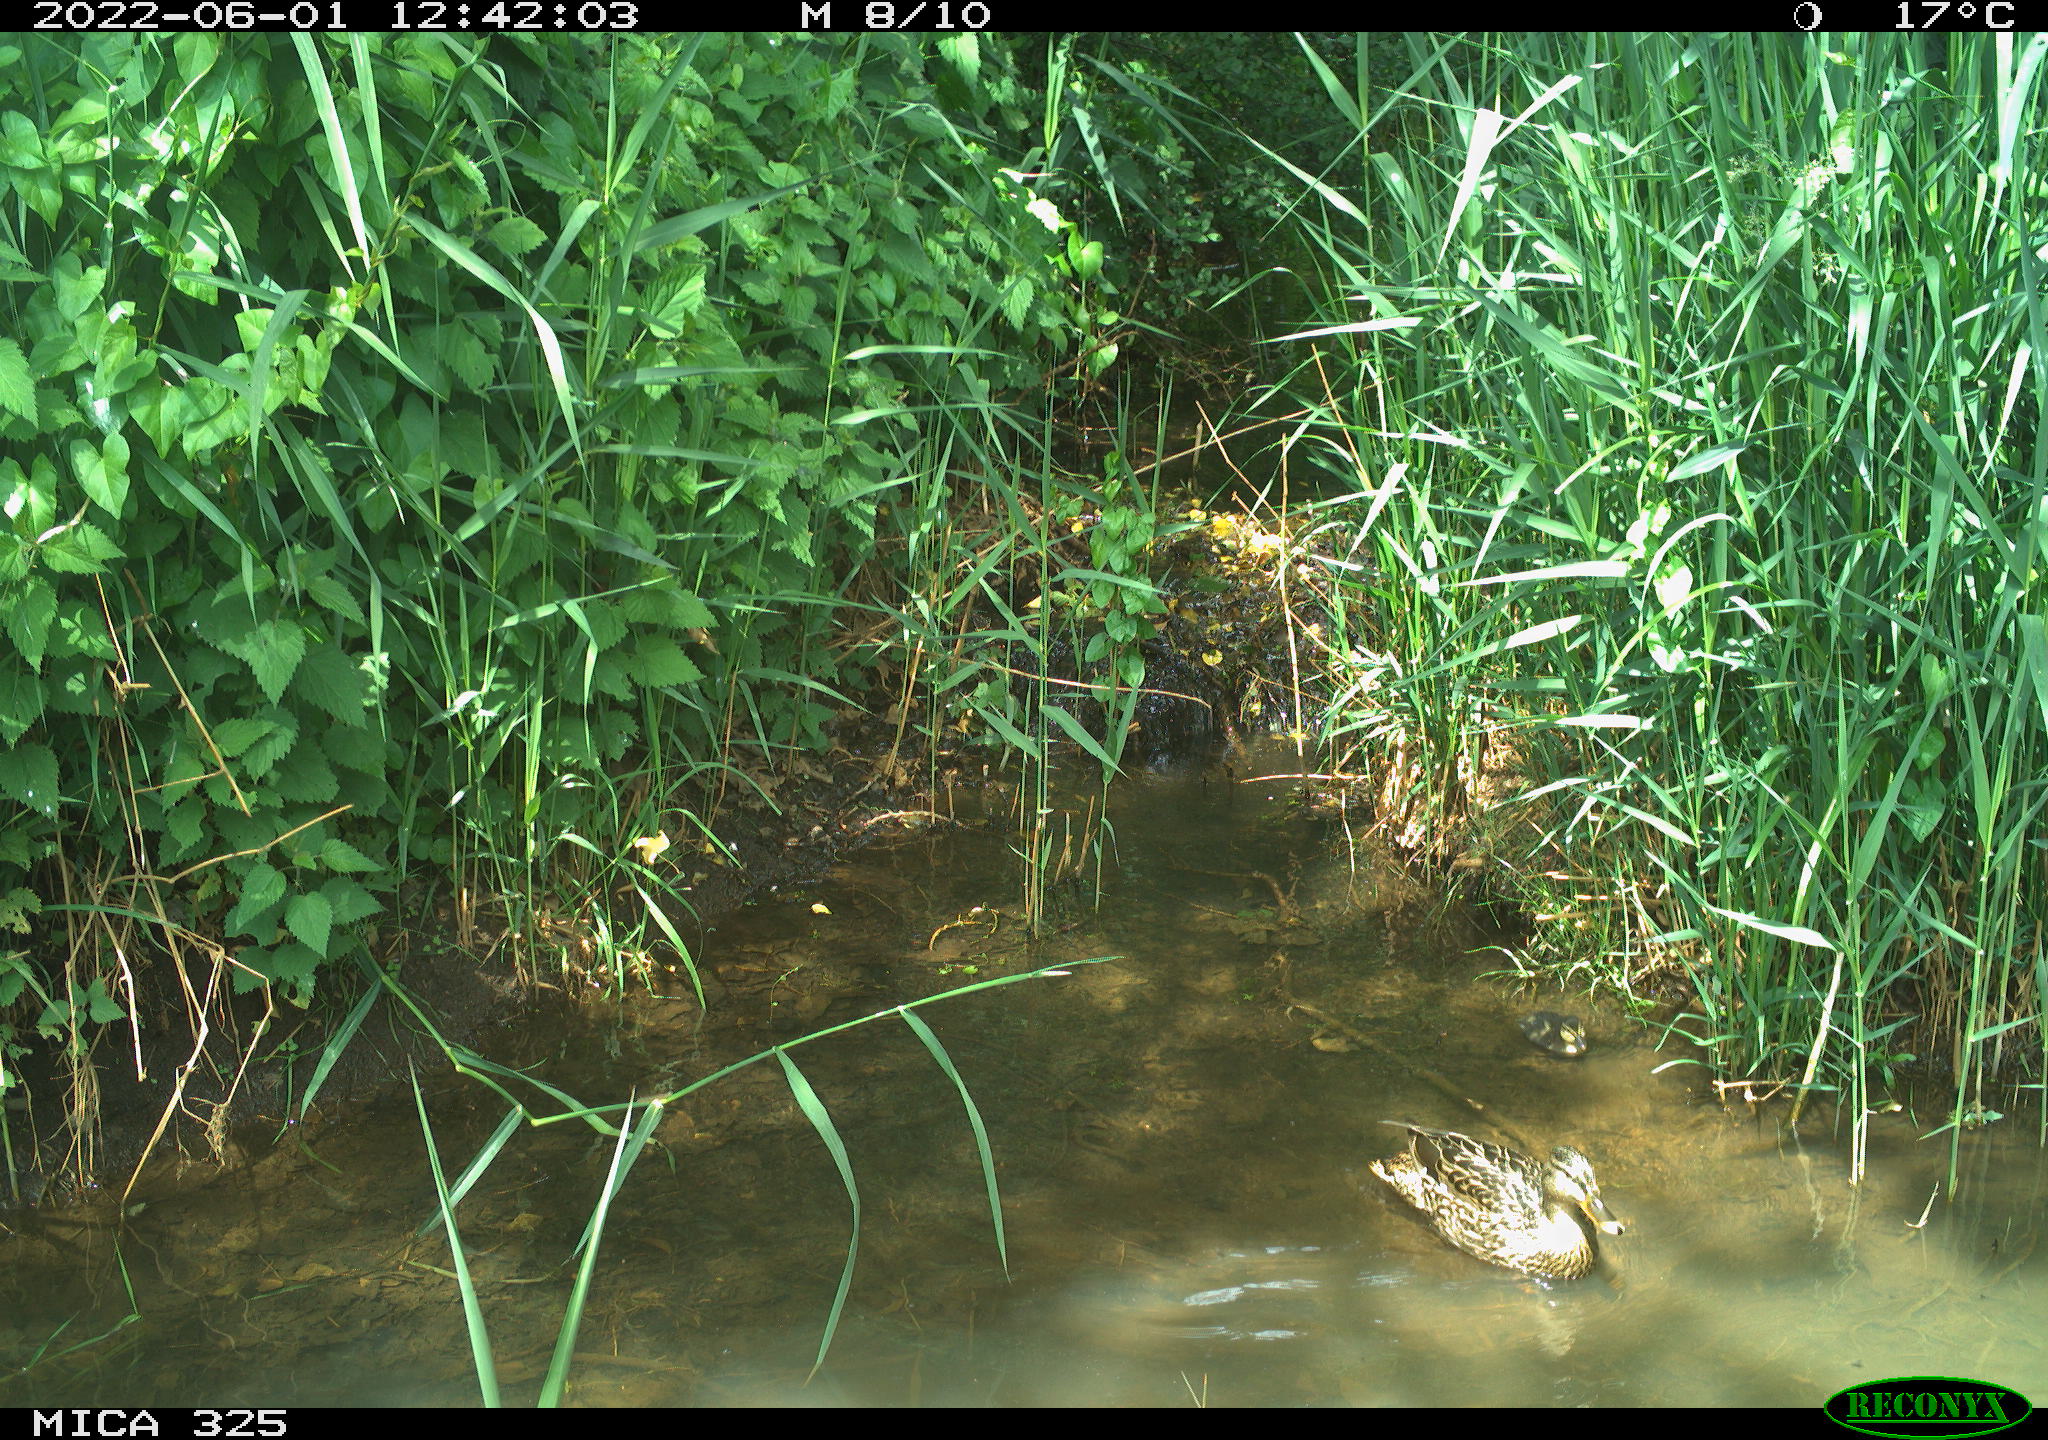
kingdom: Animalia
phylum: Chordata
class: Aves
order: Anseriformes
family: Anatidae
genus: Anas
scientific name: Anas platyrhynchos
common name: Mallard
